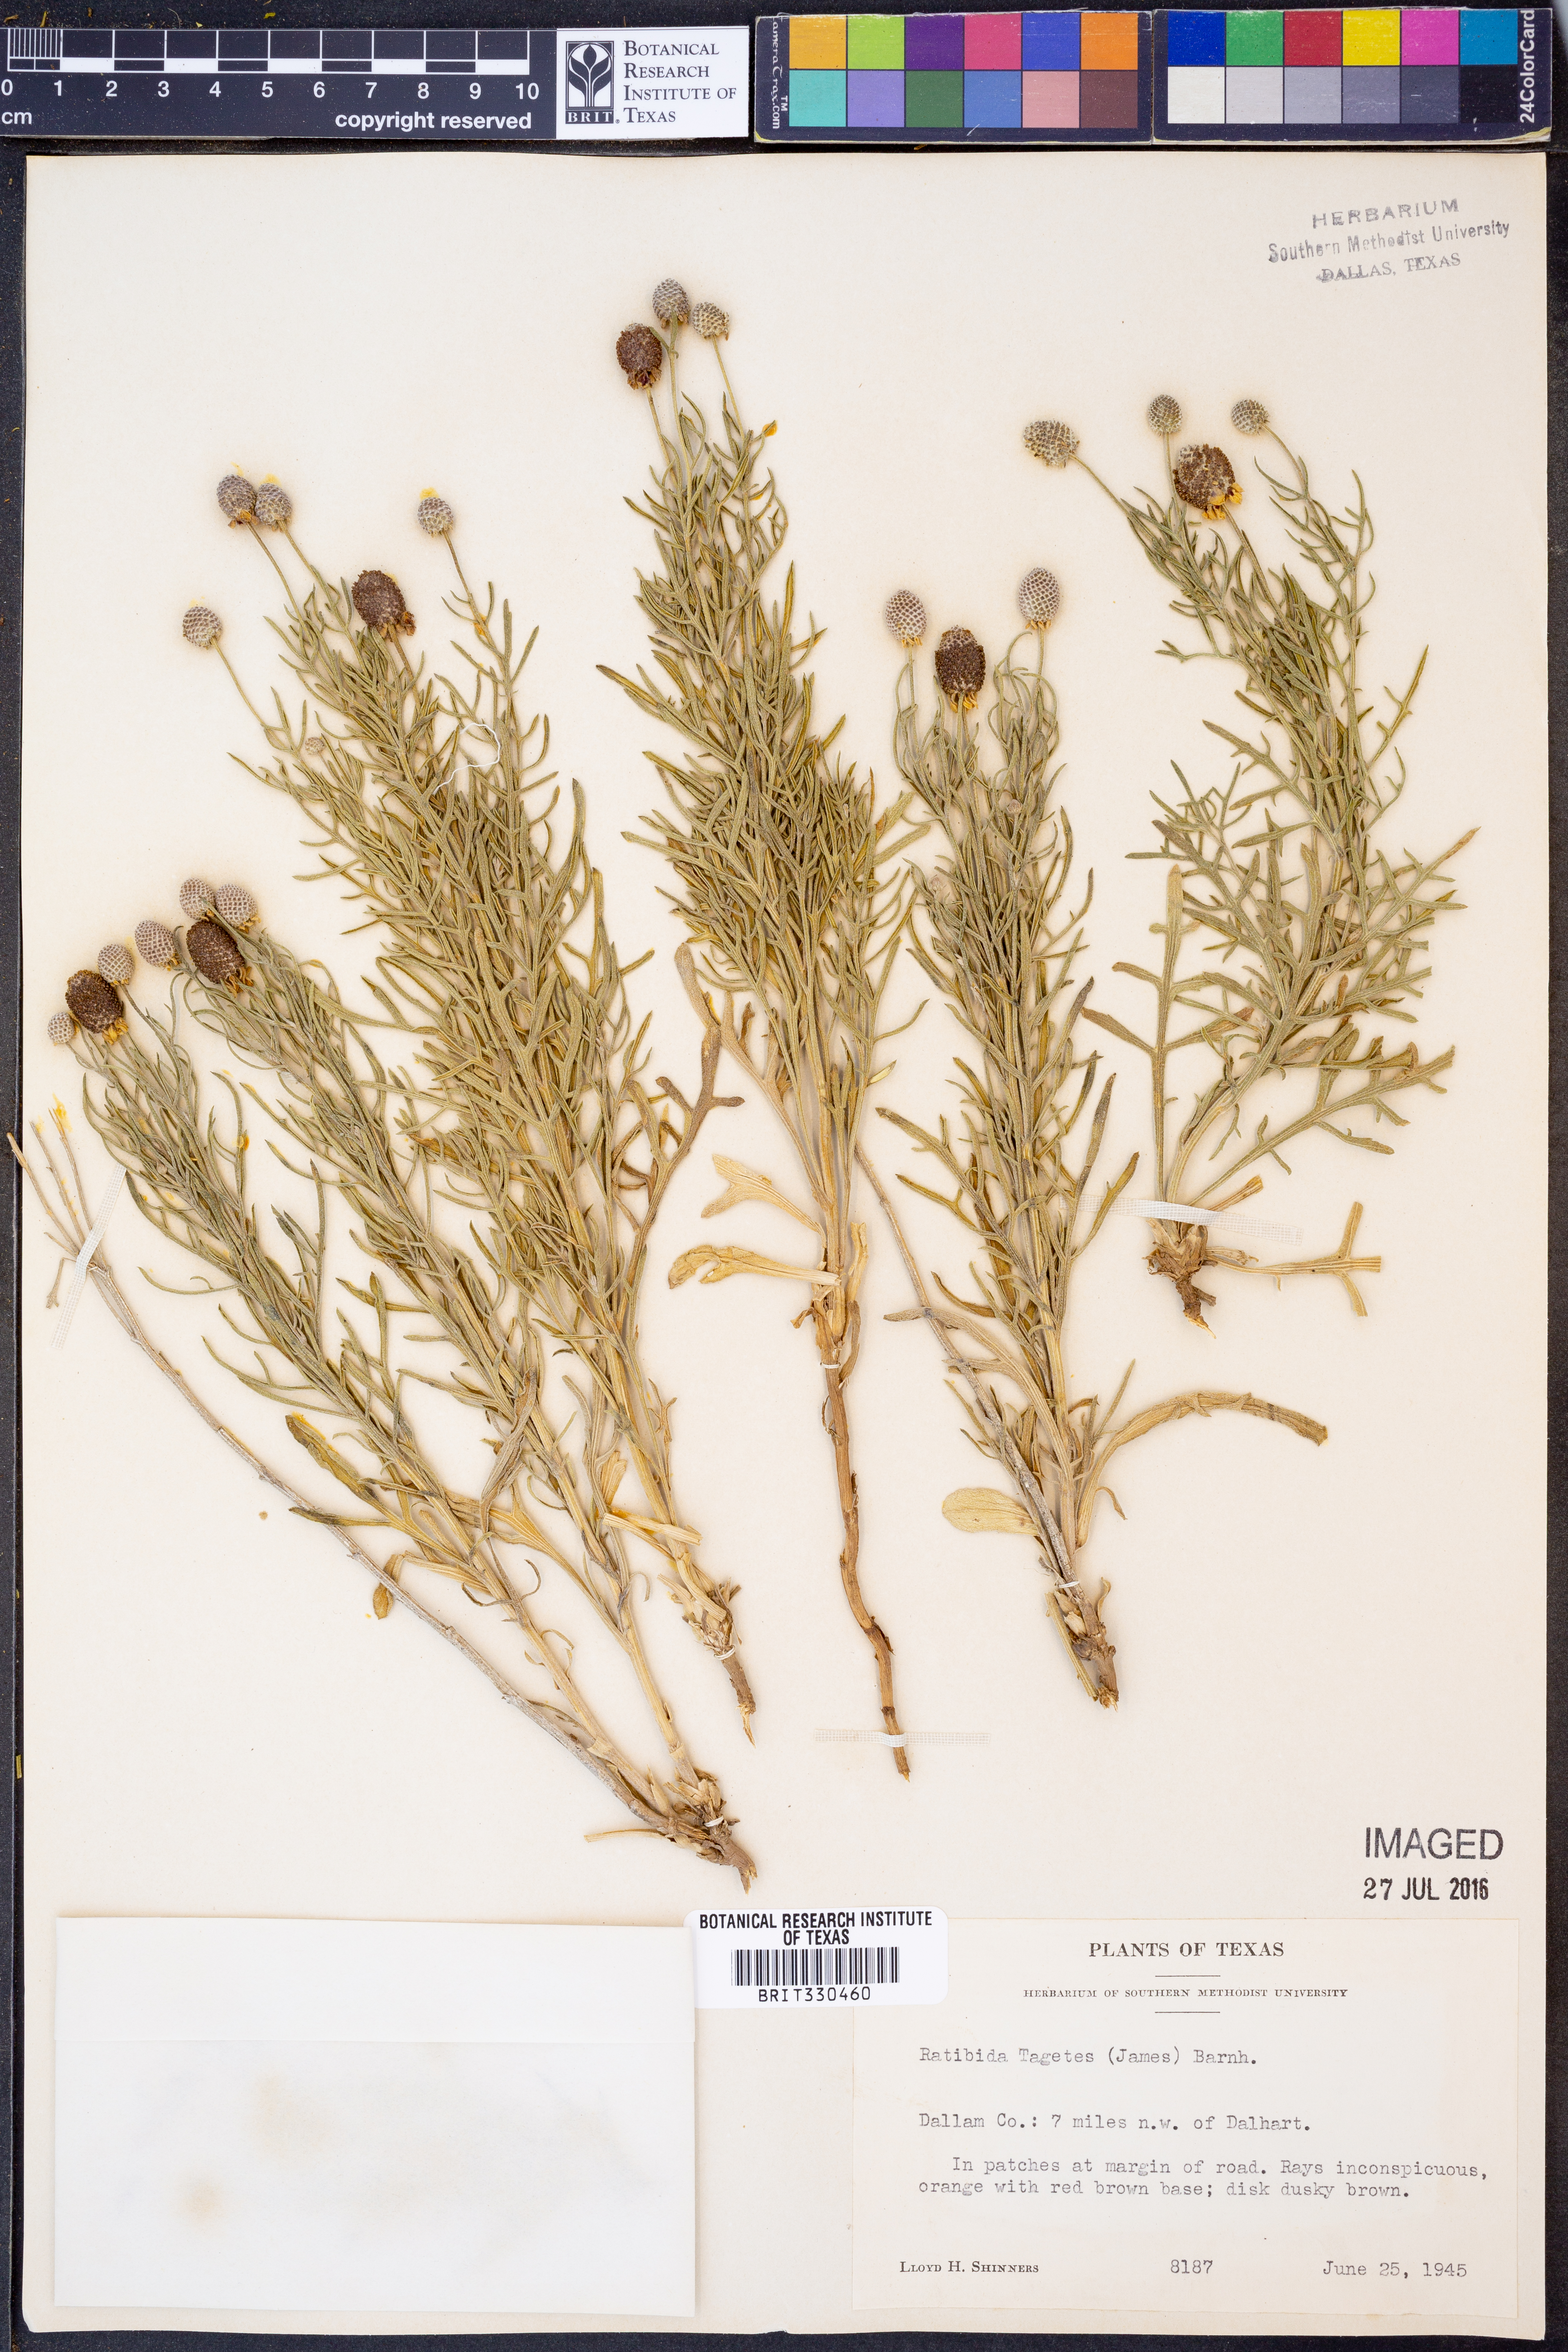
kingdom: Plantae
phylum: Tracheophyta
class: Magnoliopsida
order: Asterales
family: Asteraceae
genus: Ratibida
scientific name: Ratibida tagetes
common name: Green mexican-hat
